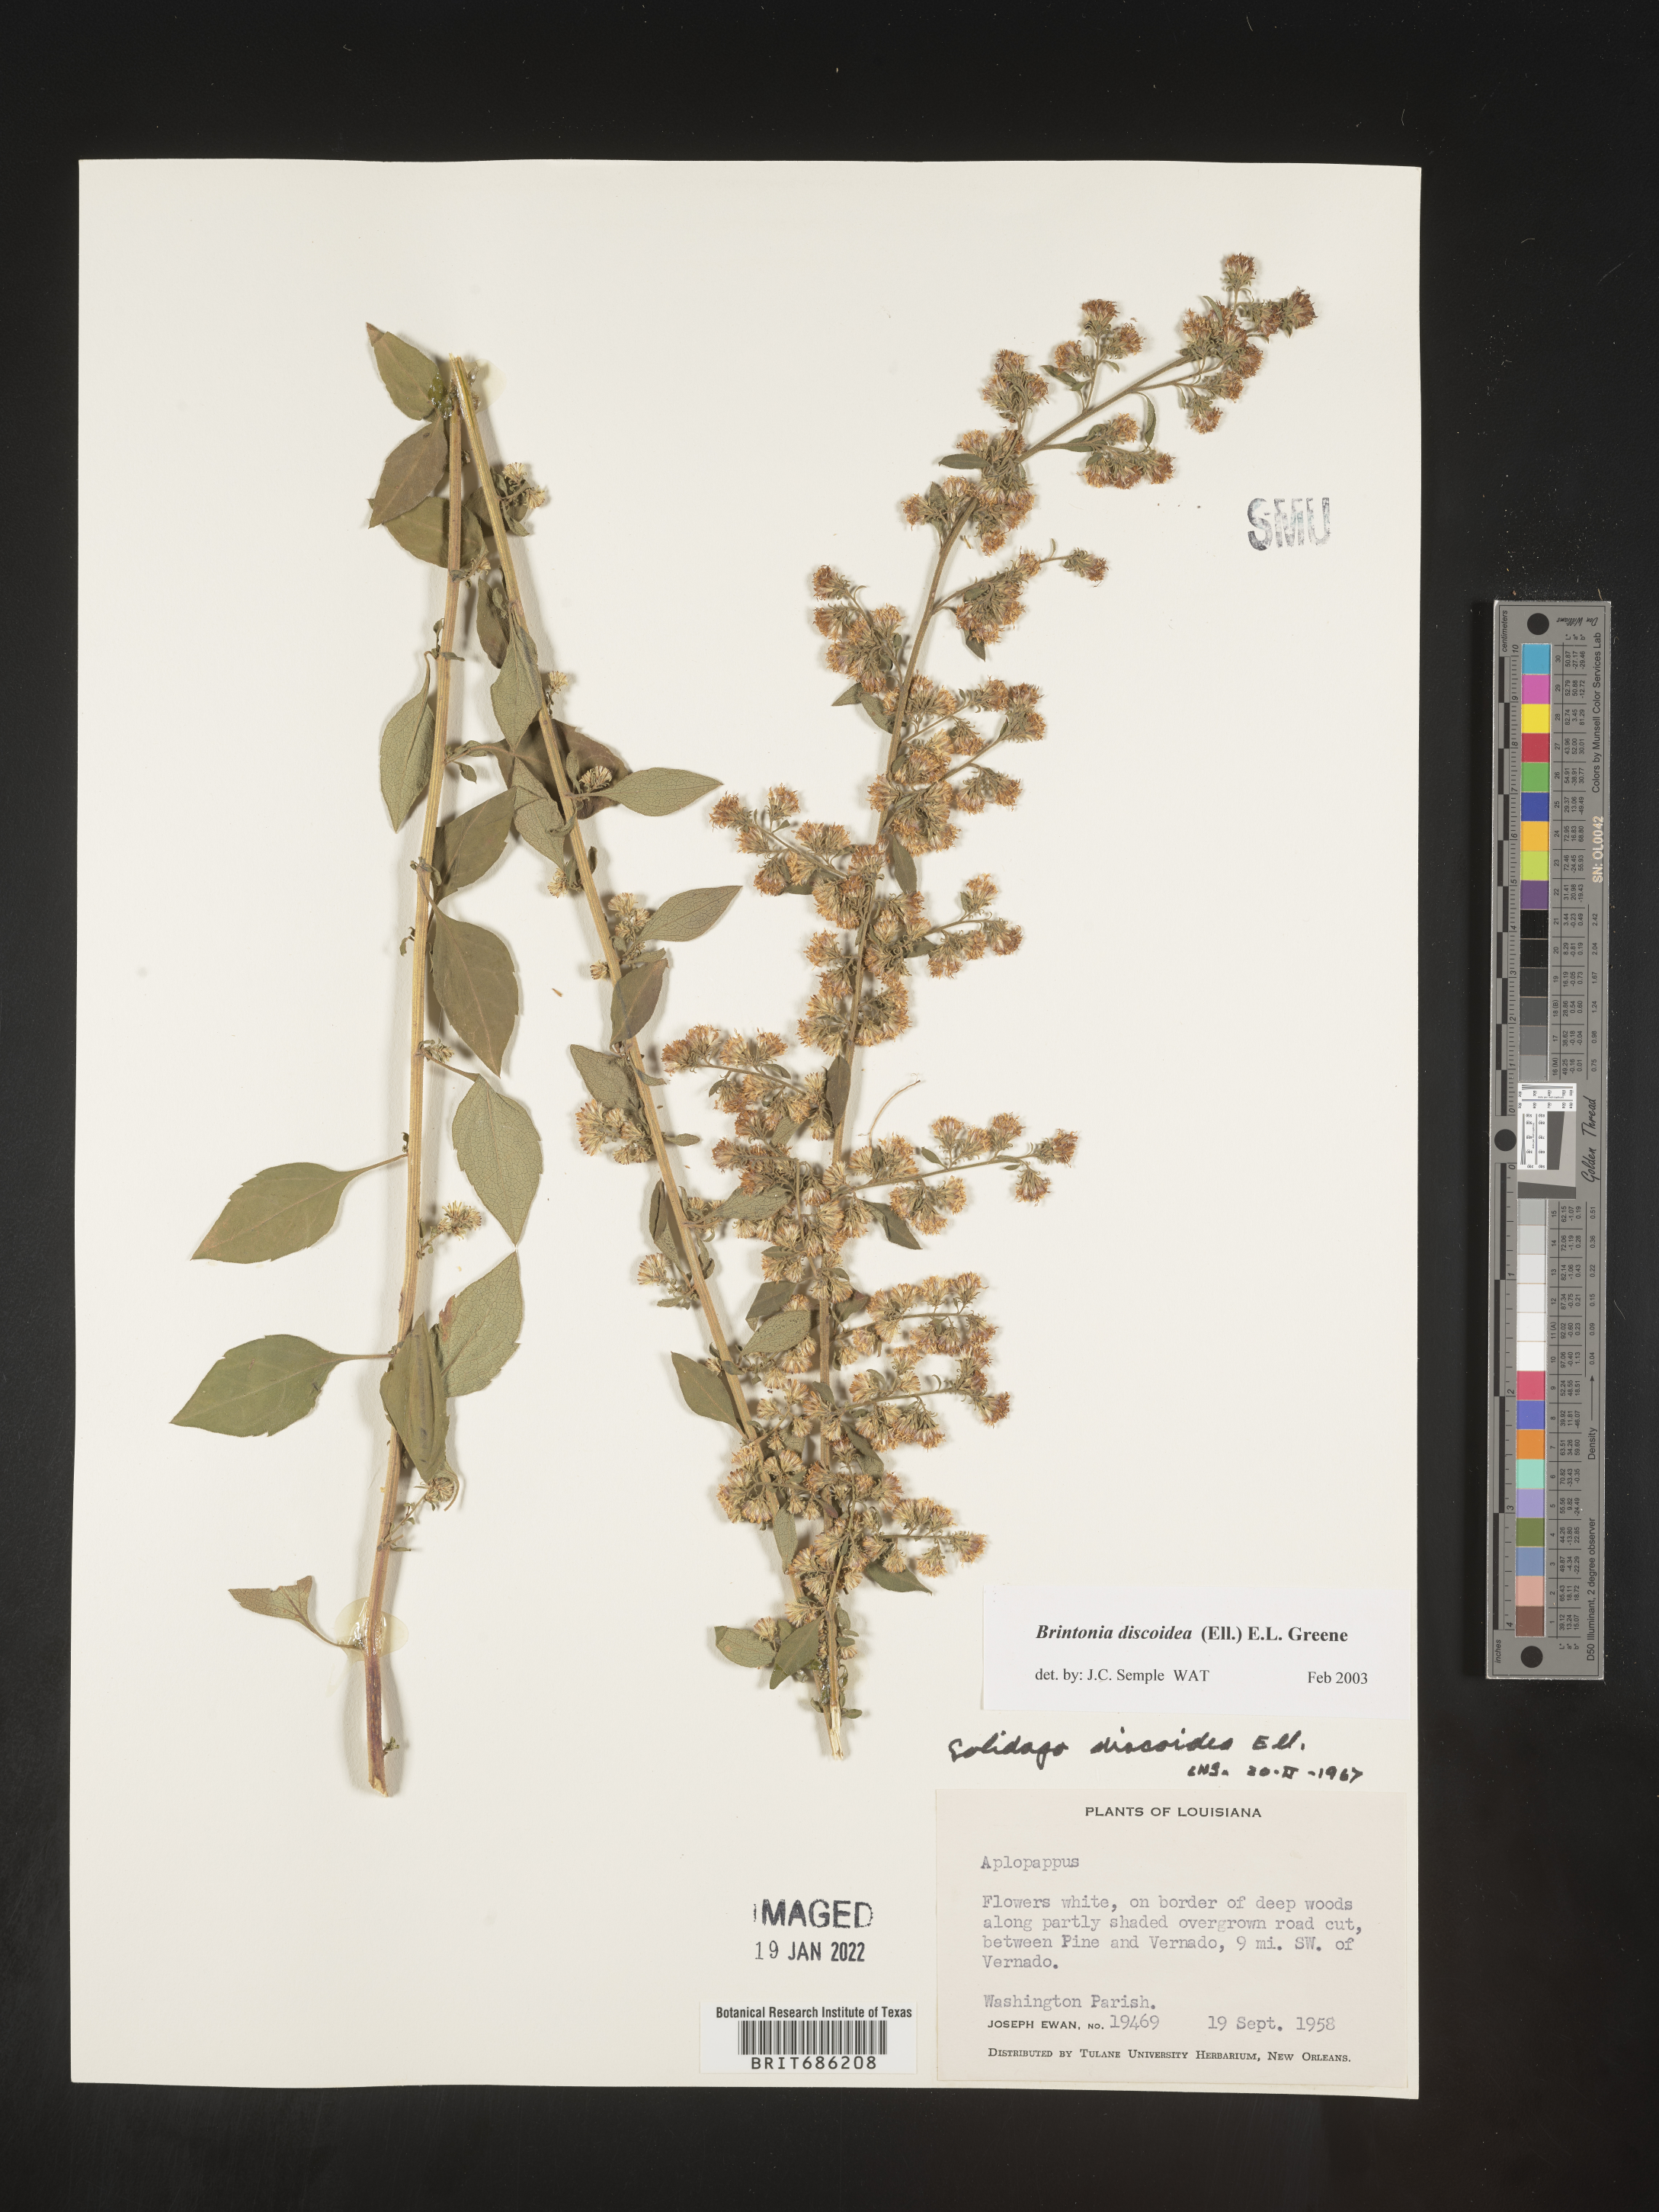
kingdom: Plantae
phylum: Tracheophyta
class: Magnoliopsida
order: Asterales
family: Asteraceae
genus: Solidago
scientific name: Solidago discoidea
